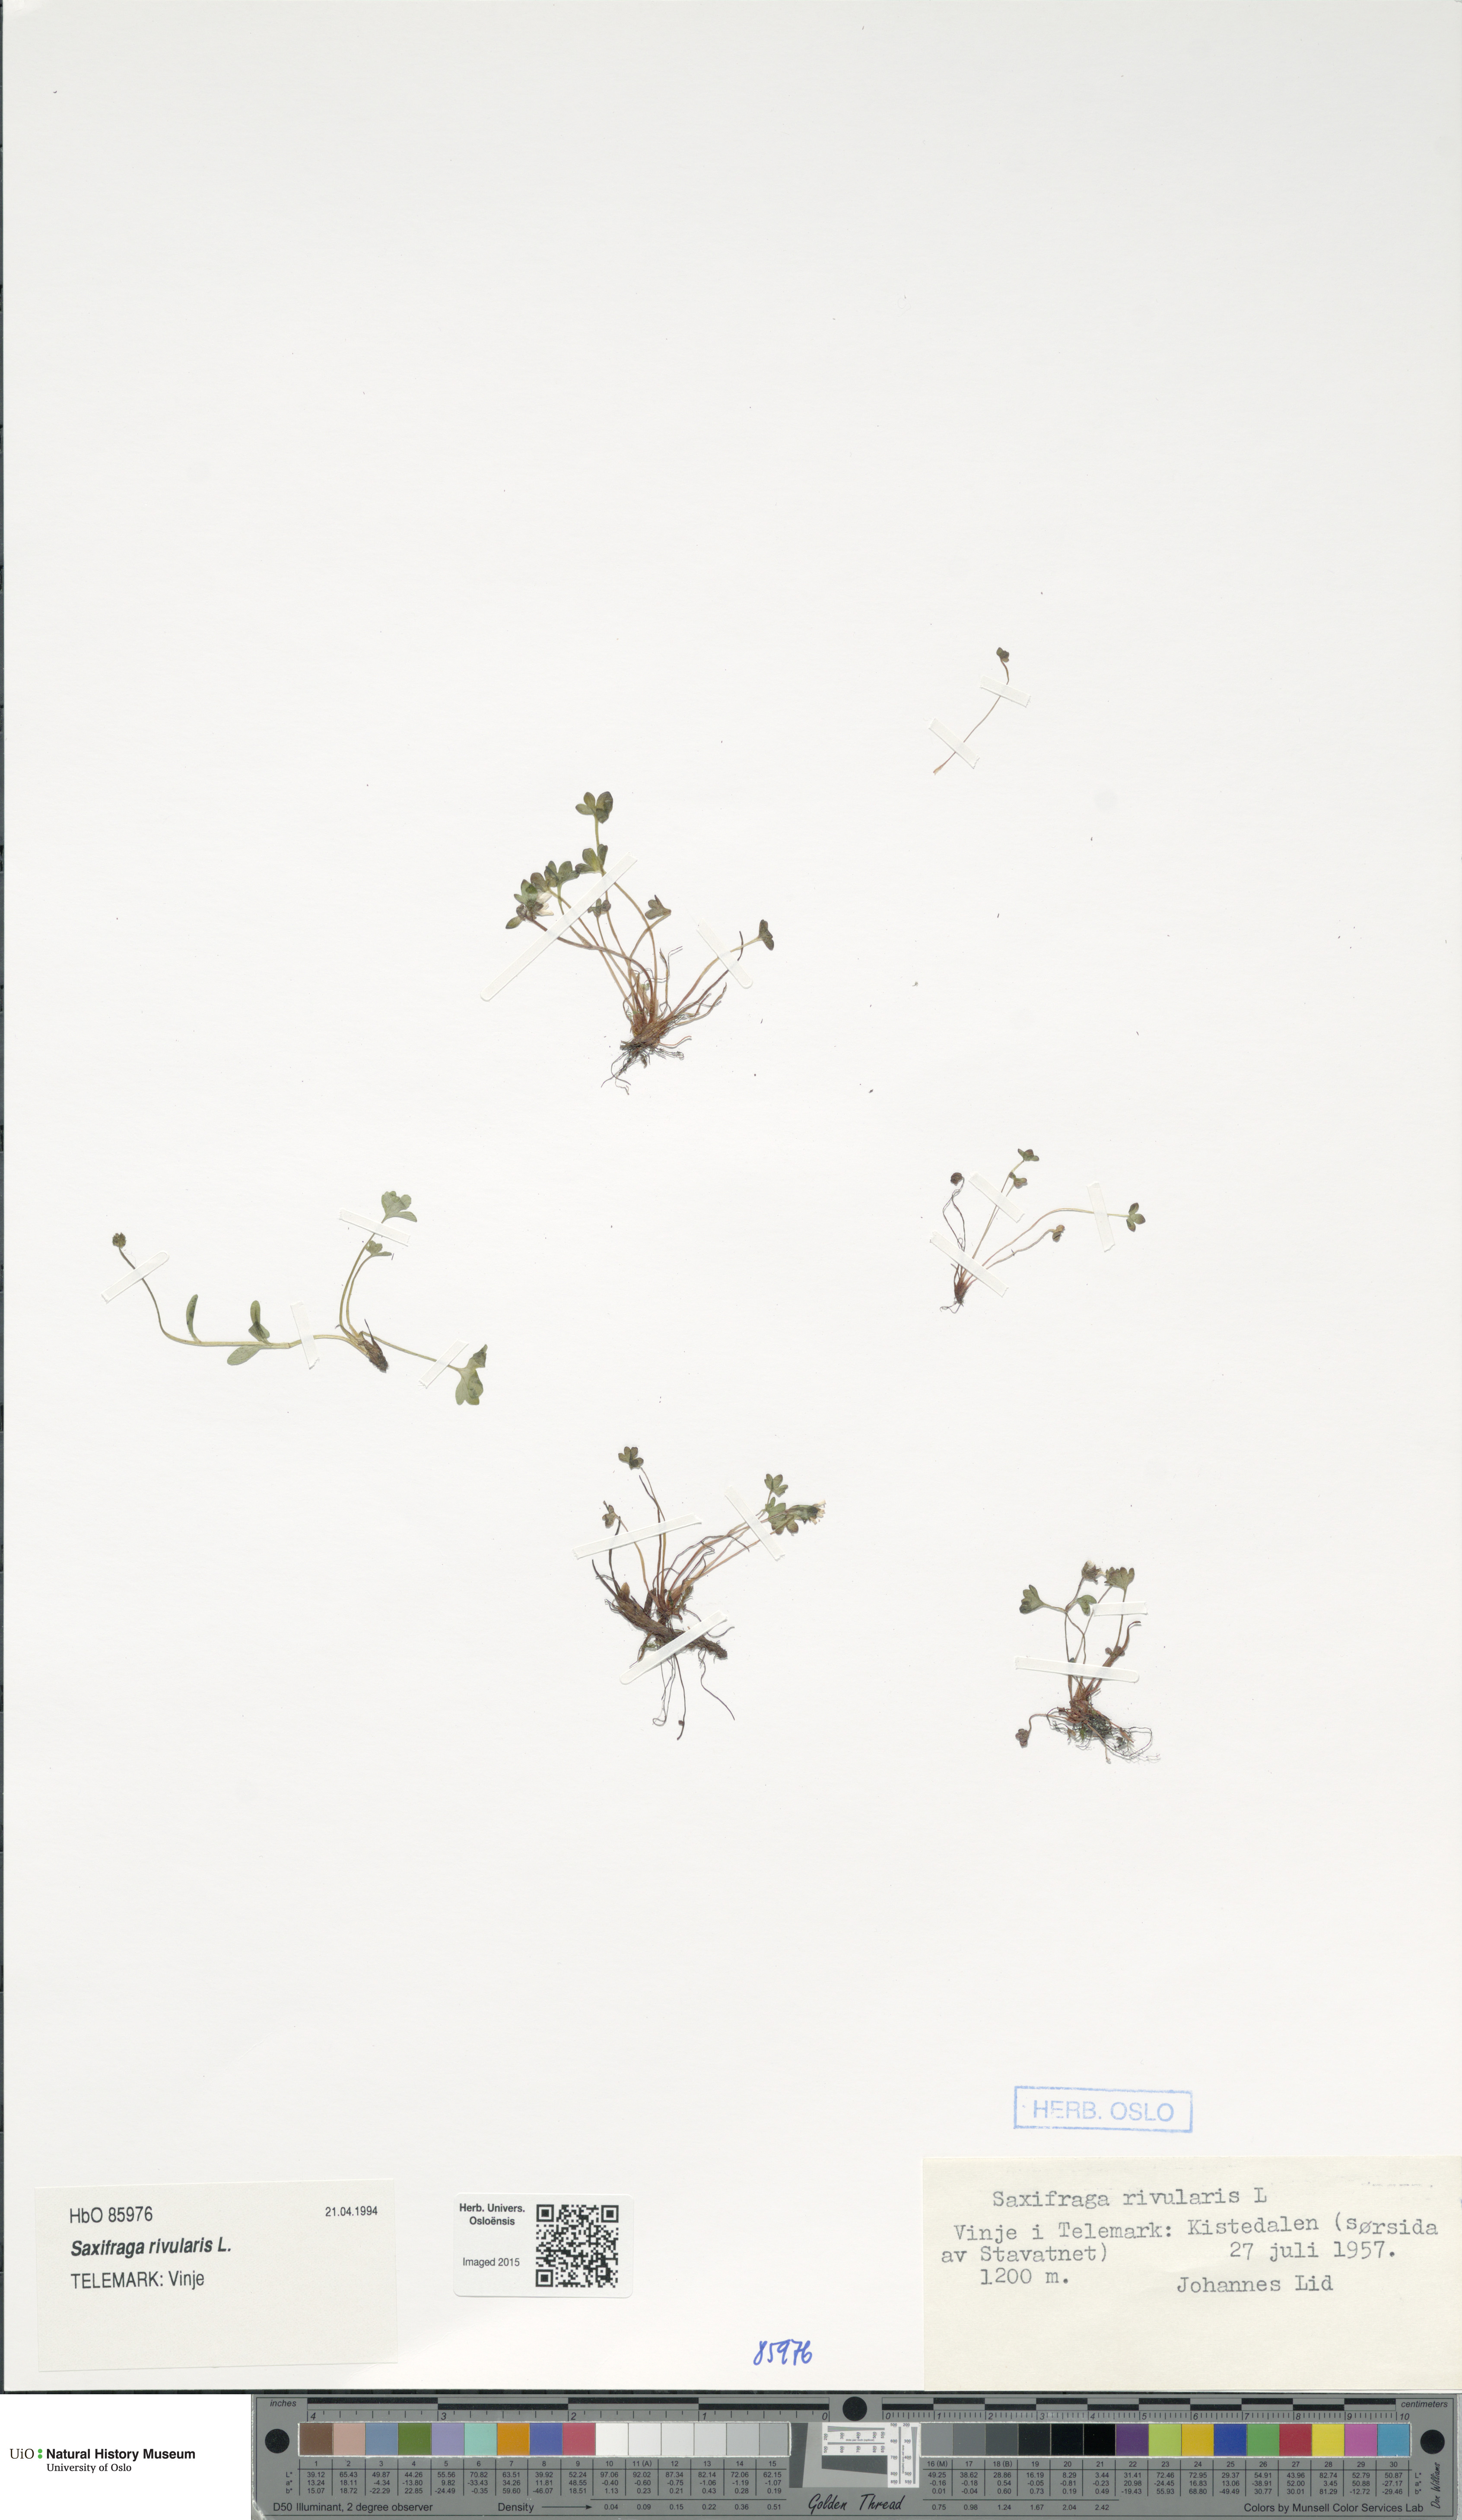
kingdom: Plantae
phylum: Tracheophyta
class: Magnoliopsida
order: Saxifragales
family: Saxifragaceae
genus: Saxifraga
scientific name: Saxifraga rivularis
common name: Highland saxifrage
